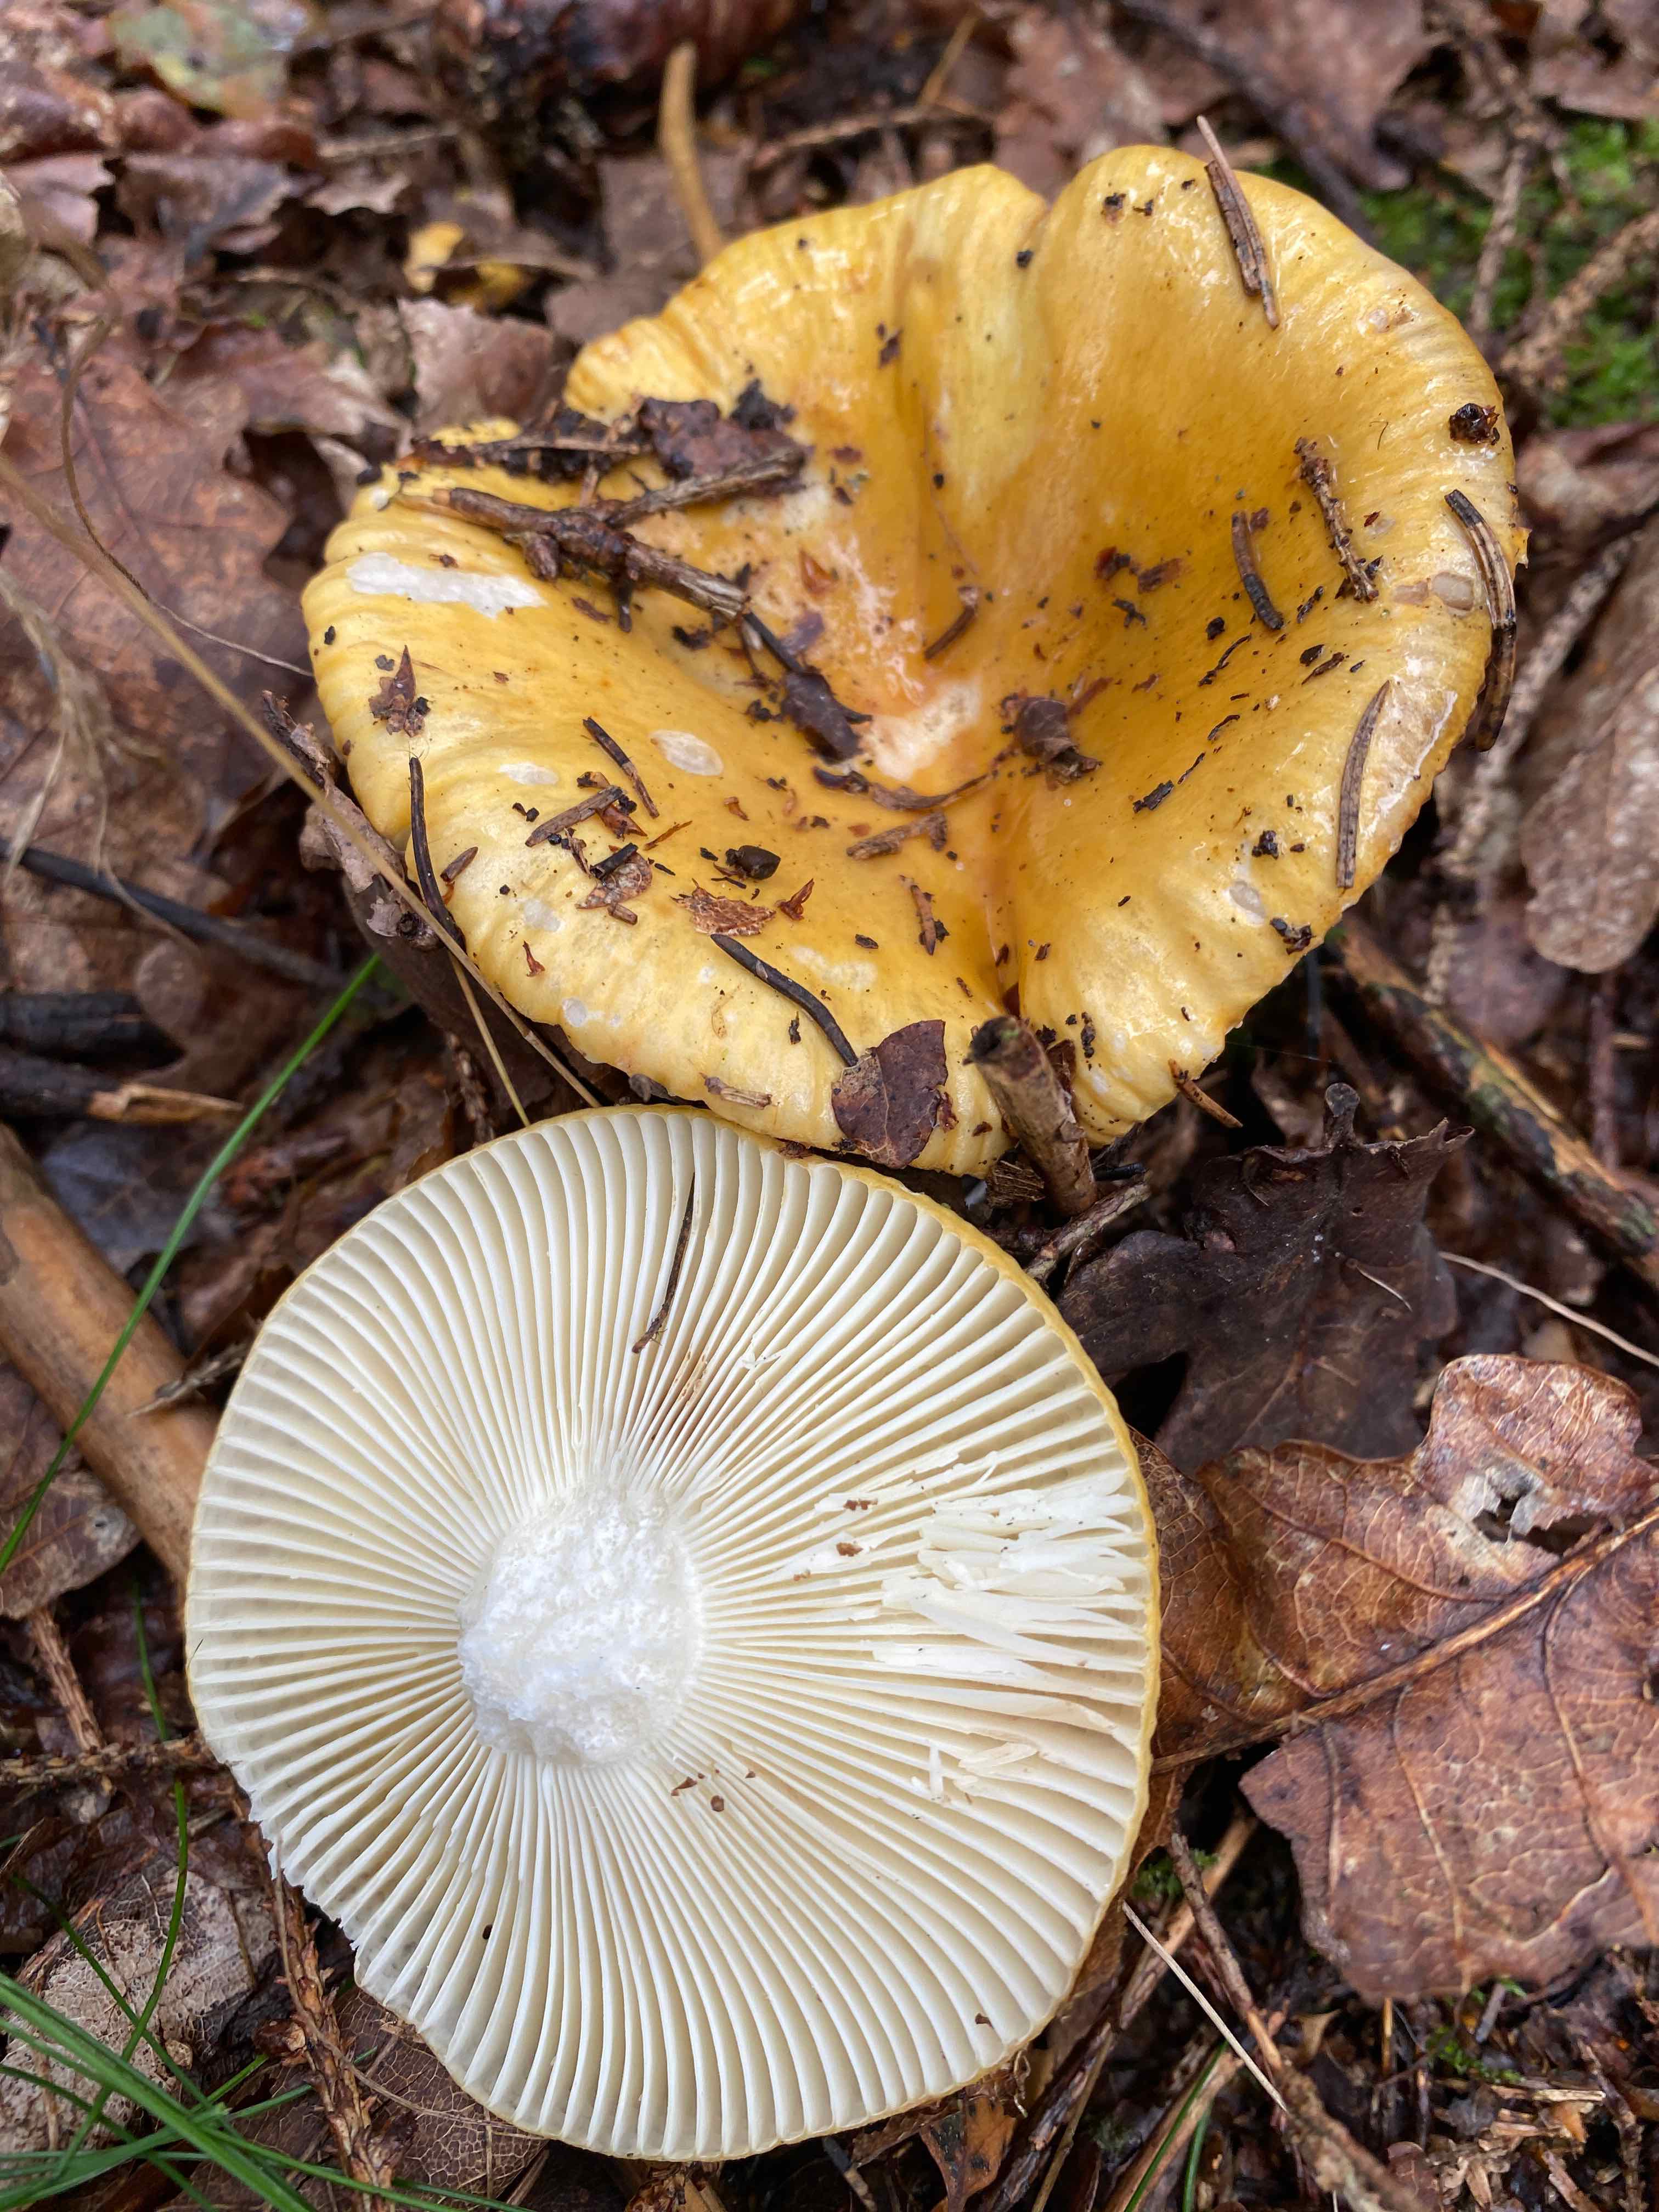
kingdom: Fungi
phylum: Basidiomycota
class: Agaricomycetes
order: Russulales
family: Russulaceae
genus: Russula
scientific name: Russula ochroleuca
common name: okkergul skørhat
